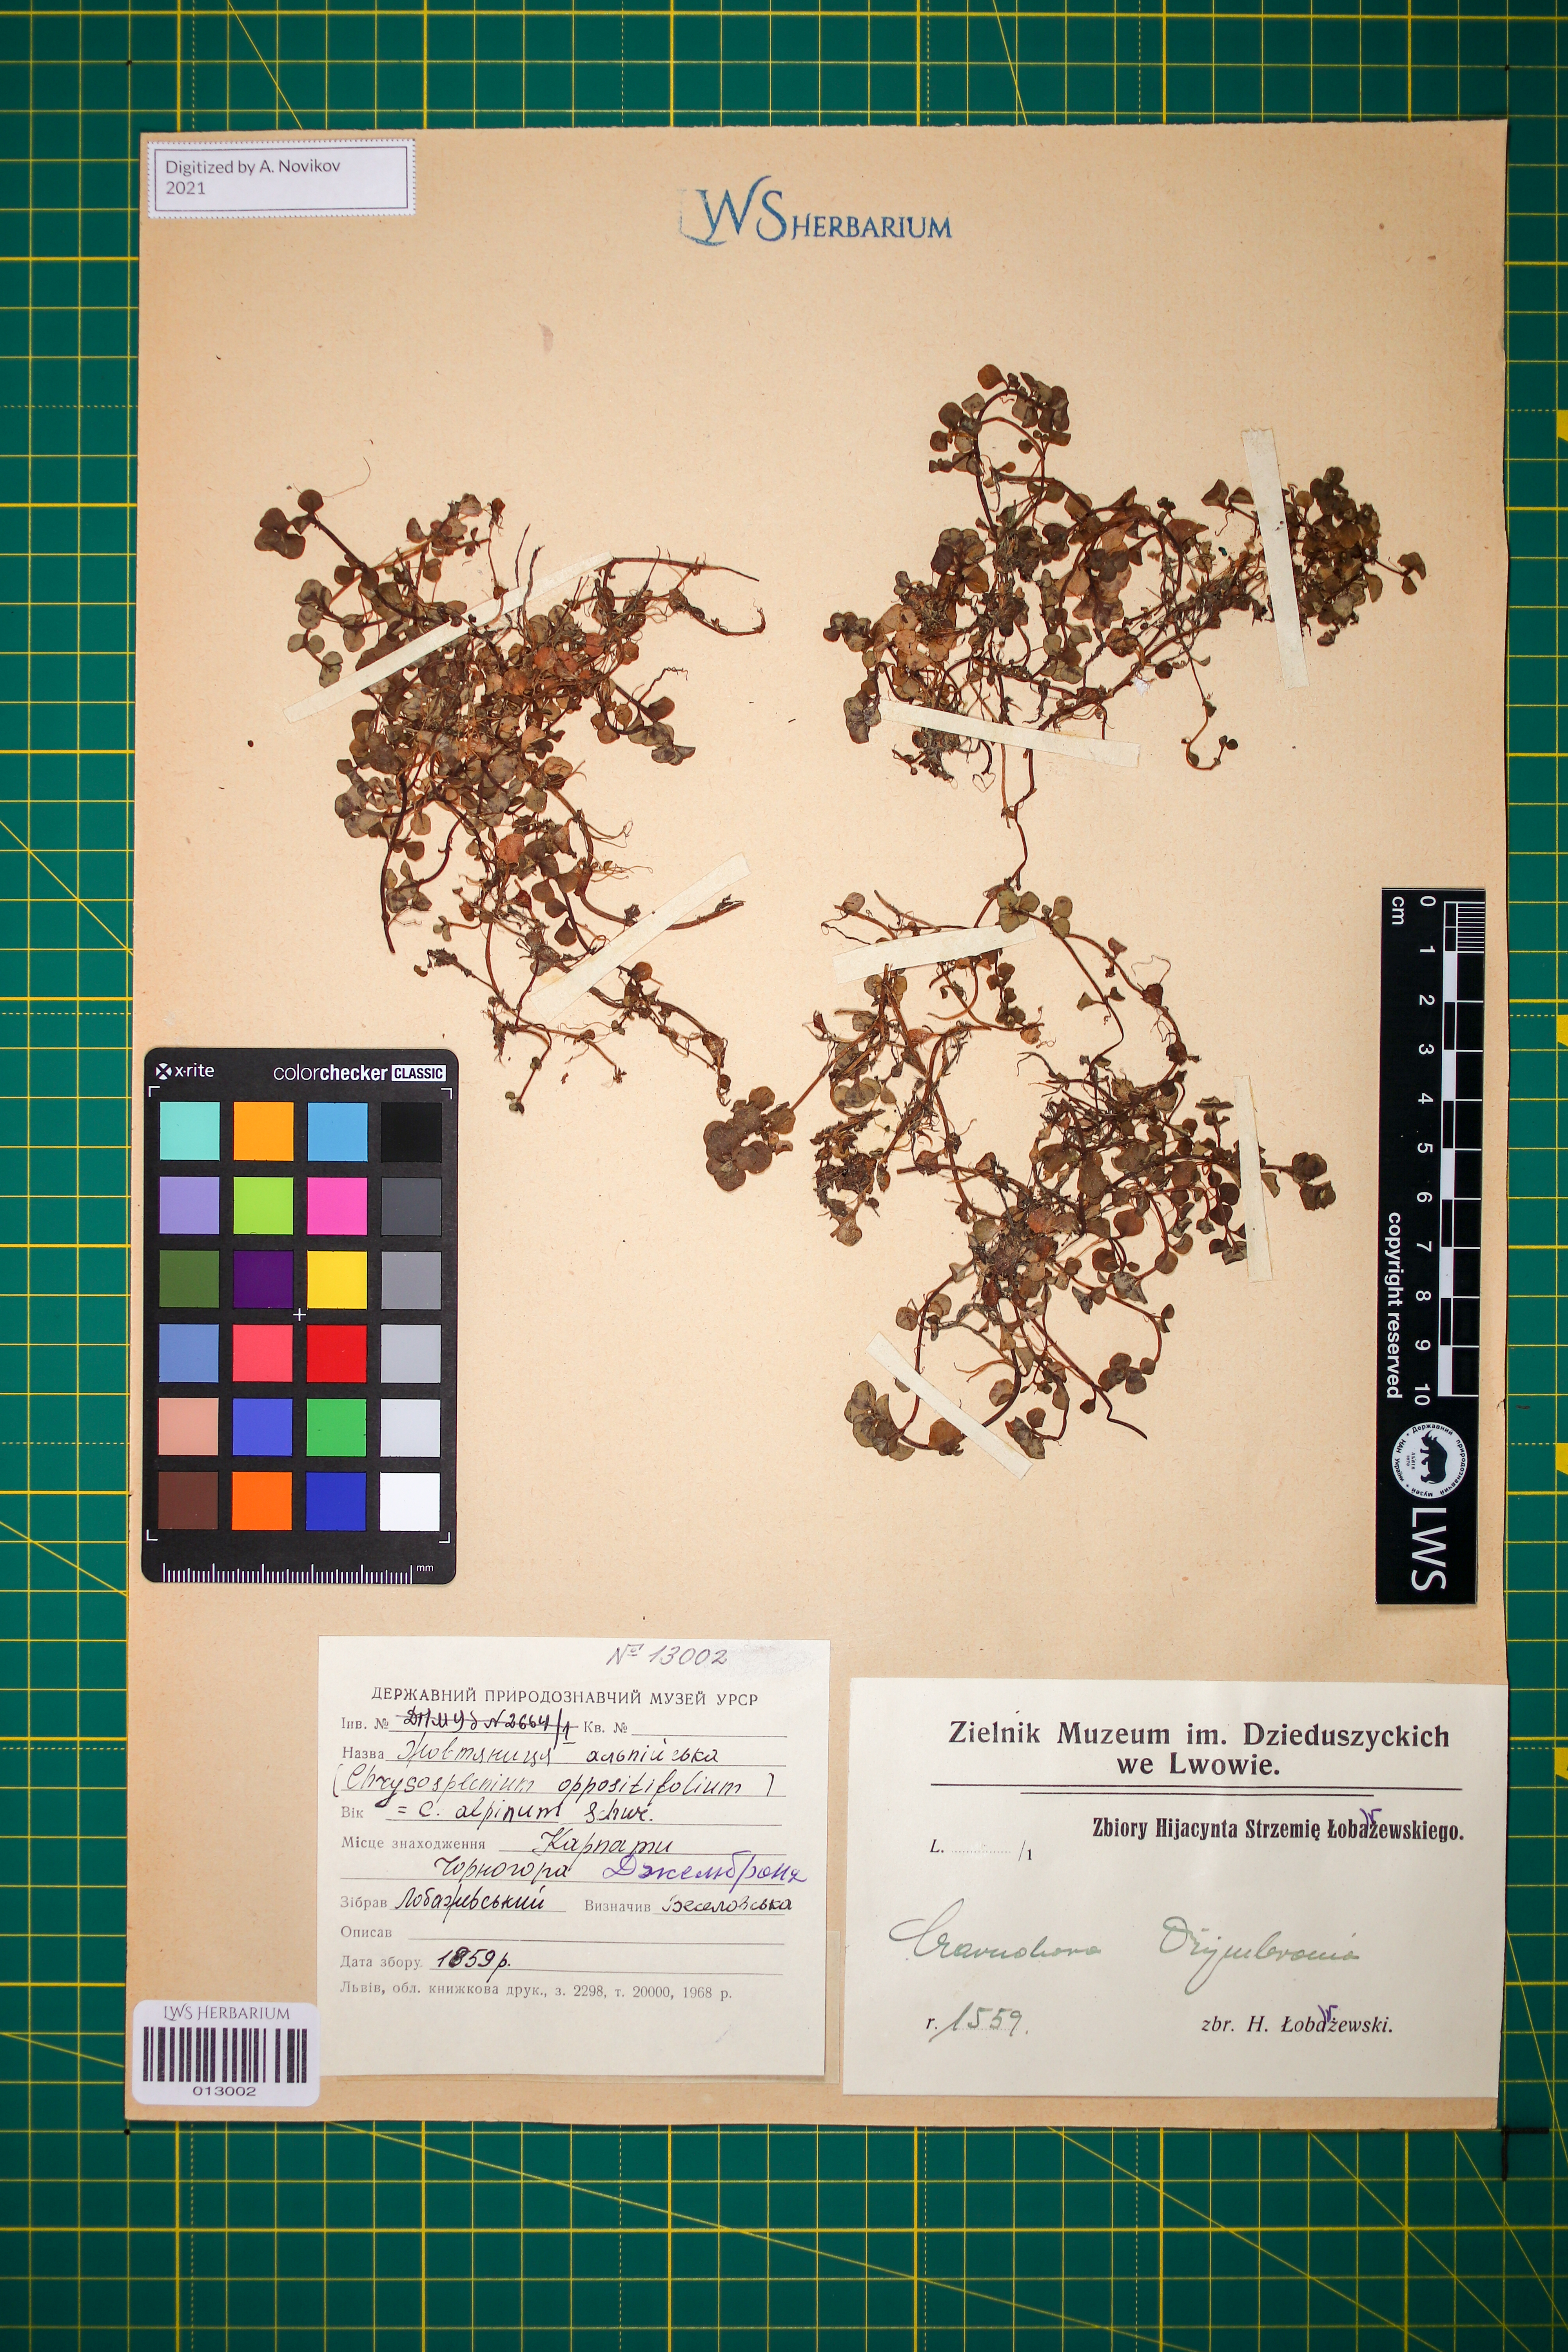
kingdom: Plantae
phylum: Tracheophyta
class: Magnoliopsida
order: Saxifragales
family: Saxifragaceae
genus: Chrysosplenium
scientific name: Chrysosplenium alpinum
